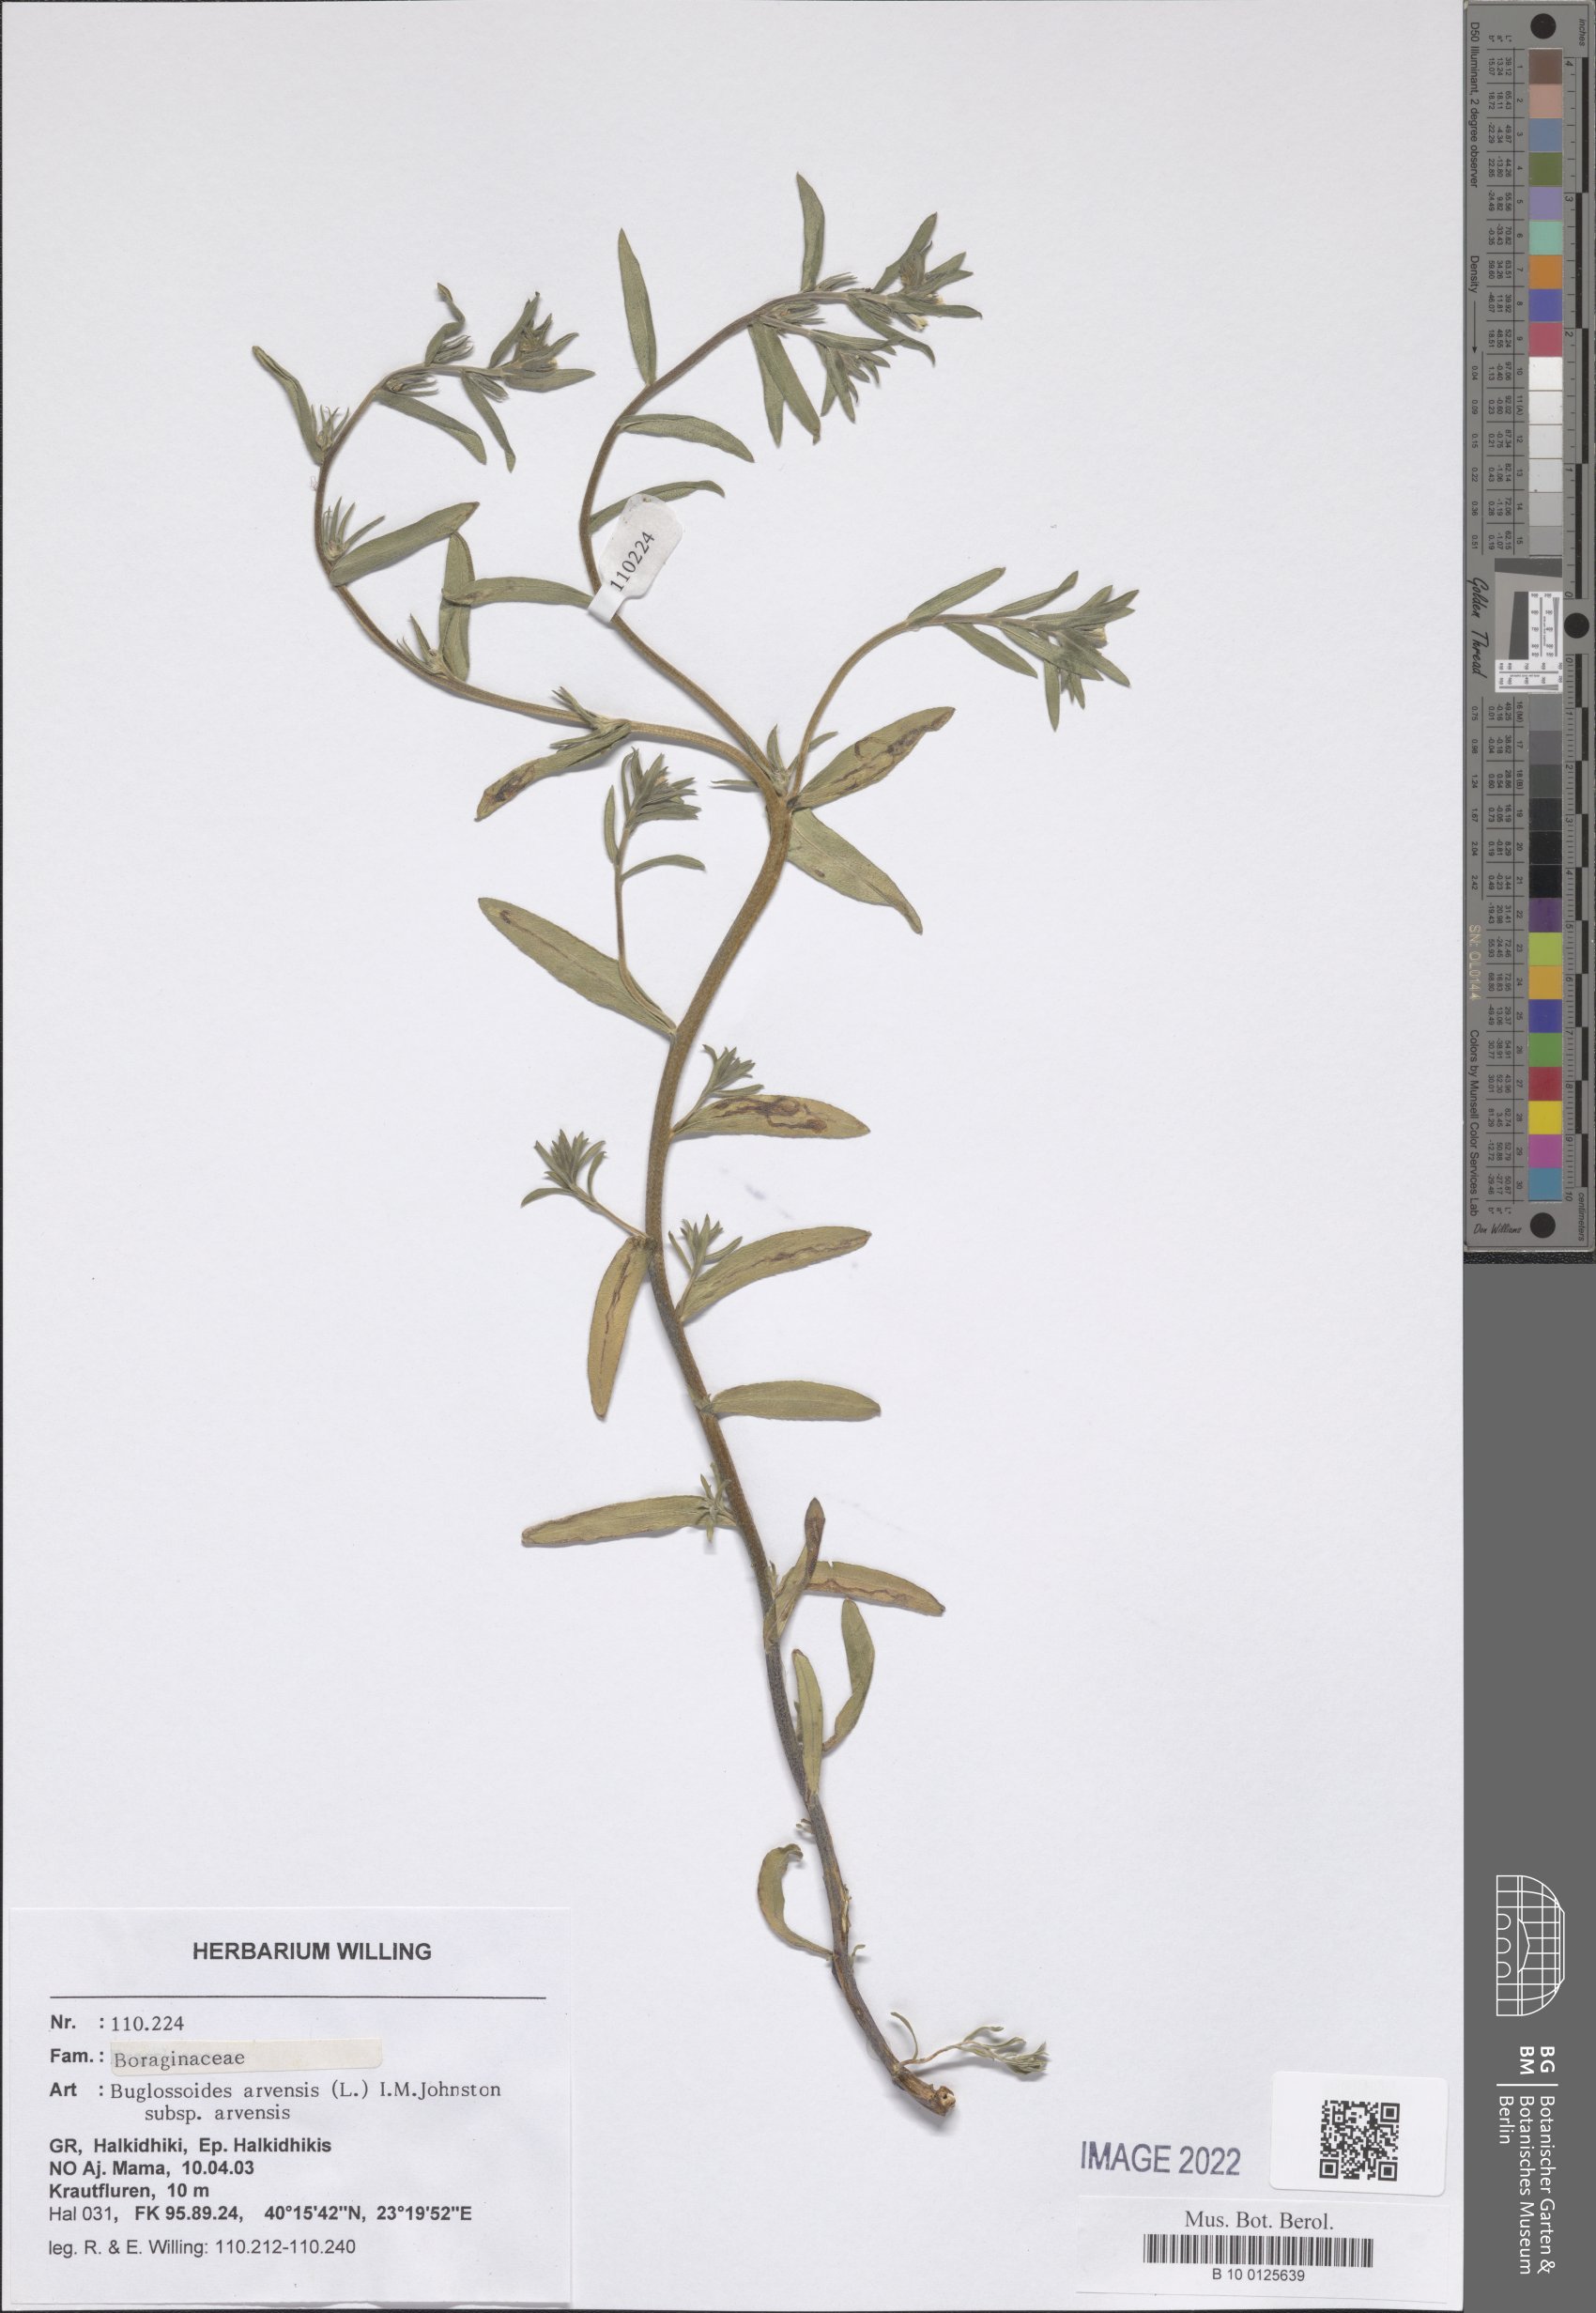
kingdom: Plantae
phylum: Tracheophyta
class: Magnoliopsida
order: Boraginales
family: Boraginaceae
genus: Buglossoides
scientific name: Buglossoides arvensis
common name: Corn gromwell
